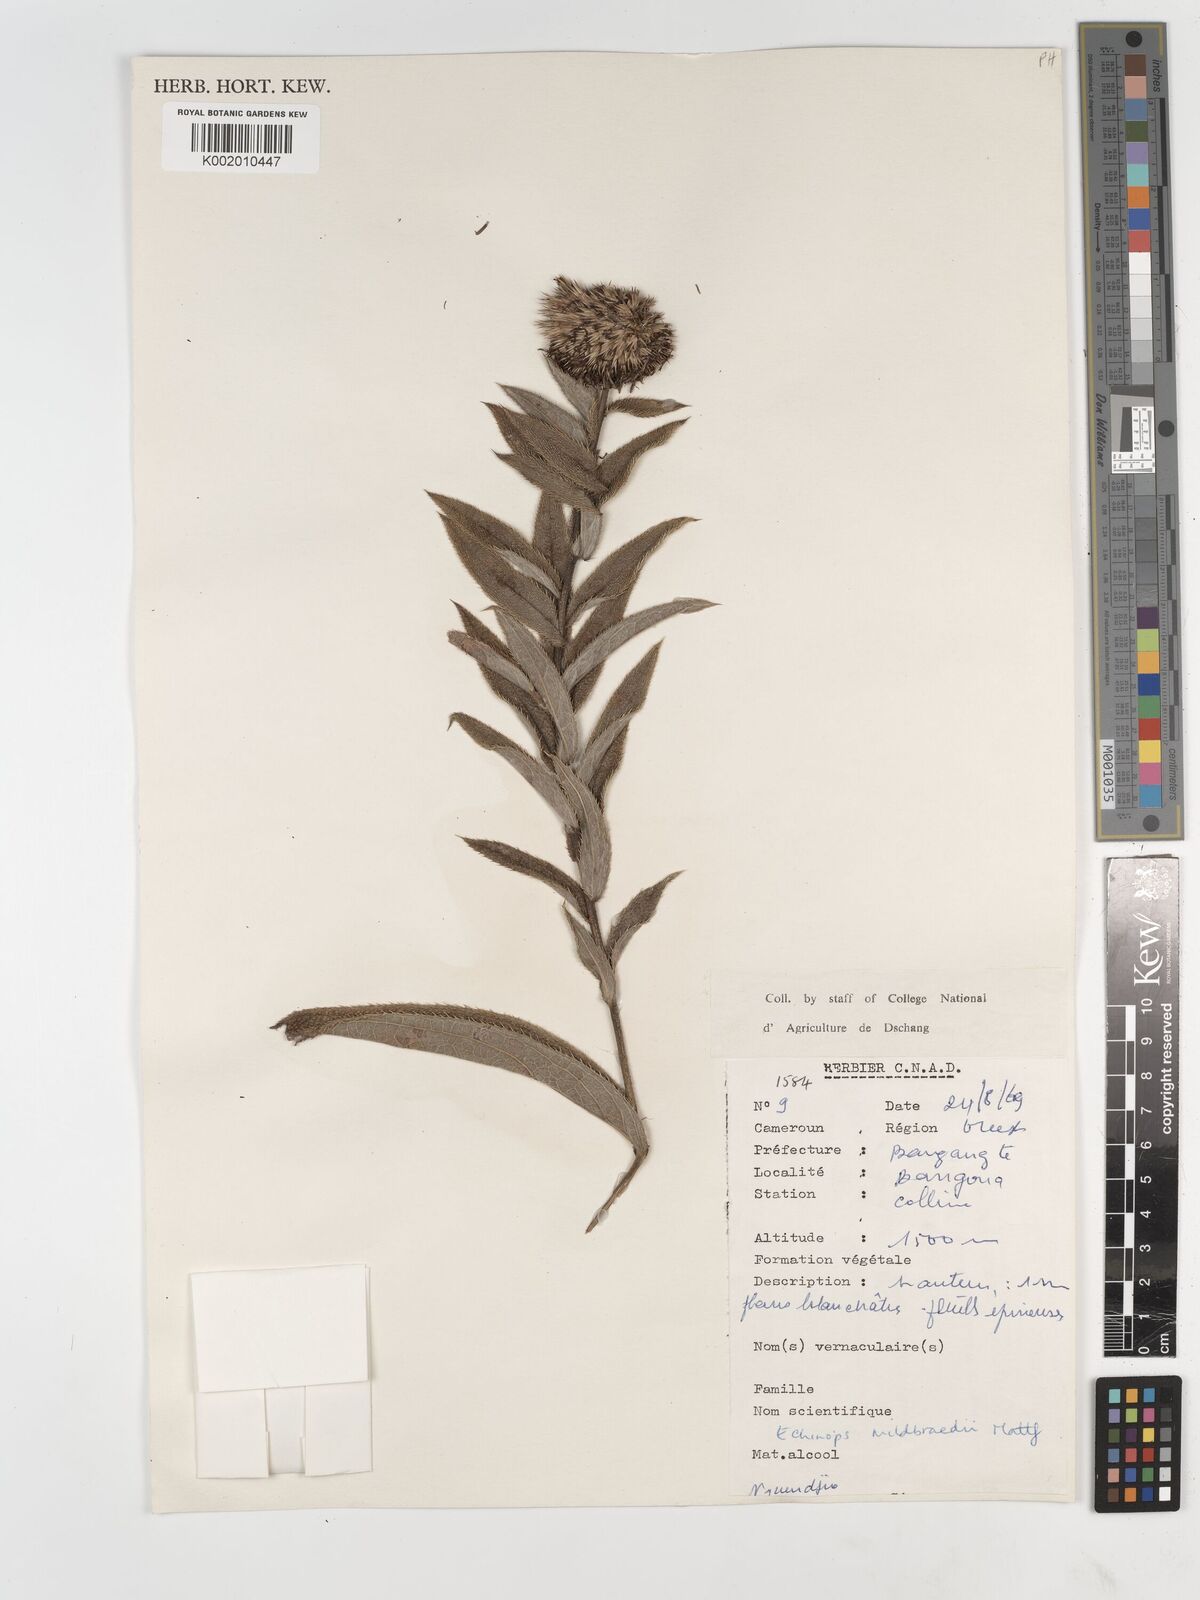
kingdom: Plantae
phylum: Tracheophyta
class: Magnoliopsida
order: Asterales
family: Asteraceae
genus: Echinops
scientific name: Echinops mildbraedii
